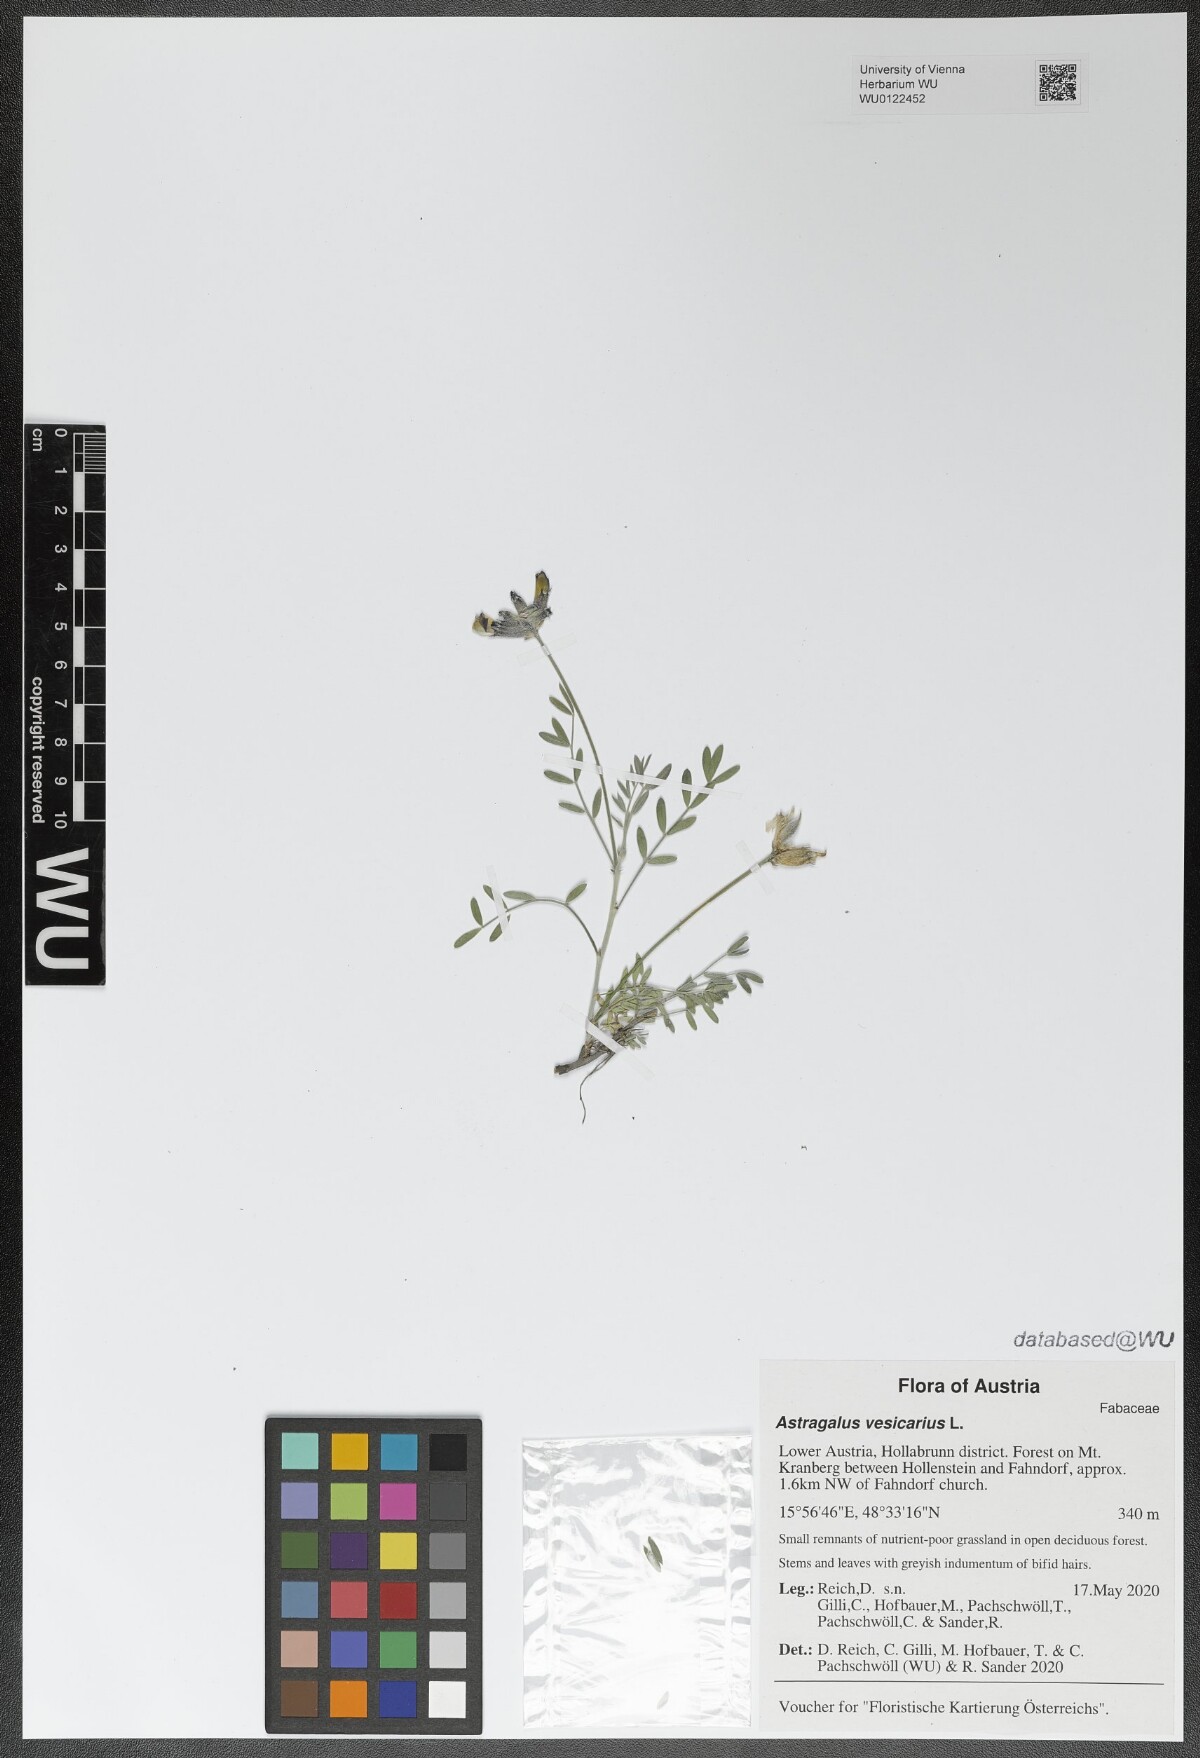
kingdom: Plantae
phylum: Tracheophyta
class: Magnoliopsida
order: Fabales
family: Fabaceae
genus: Astragalus
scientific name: Astragalus vesicarius
